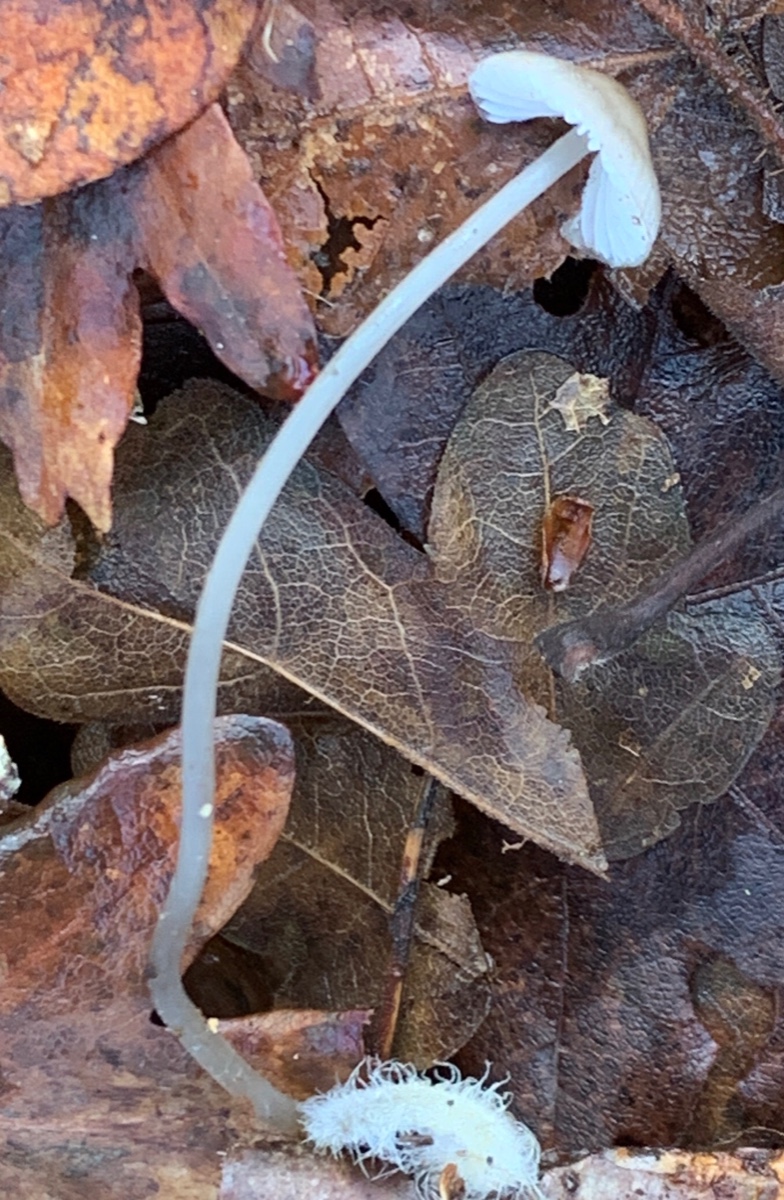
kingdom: Fungi
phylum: Basidiomycota
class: Agaricomycetes
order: Agaricales
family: Mycenaceae
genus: Mycena
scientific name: Mycena vitilis
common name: blankstokket huesvamp
